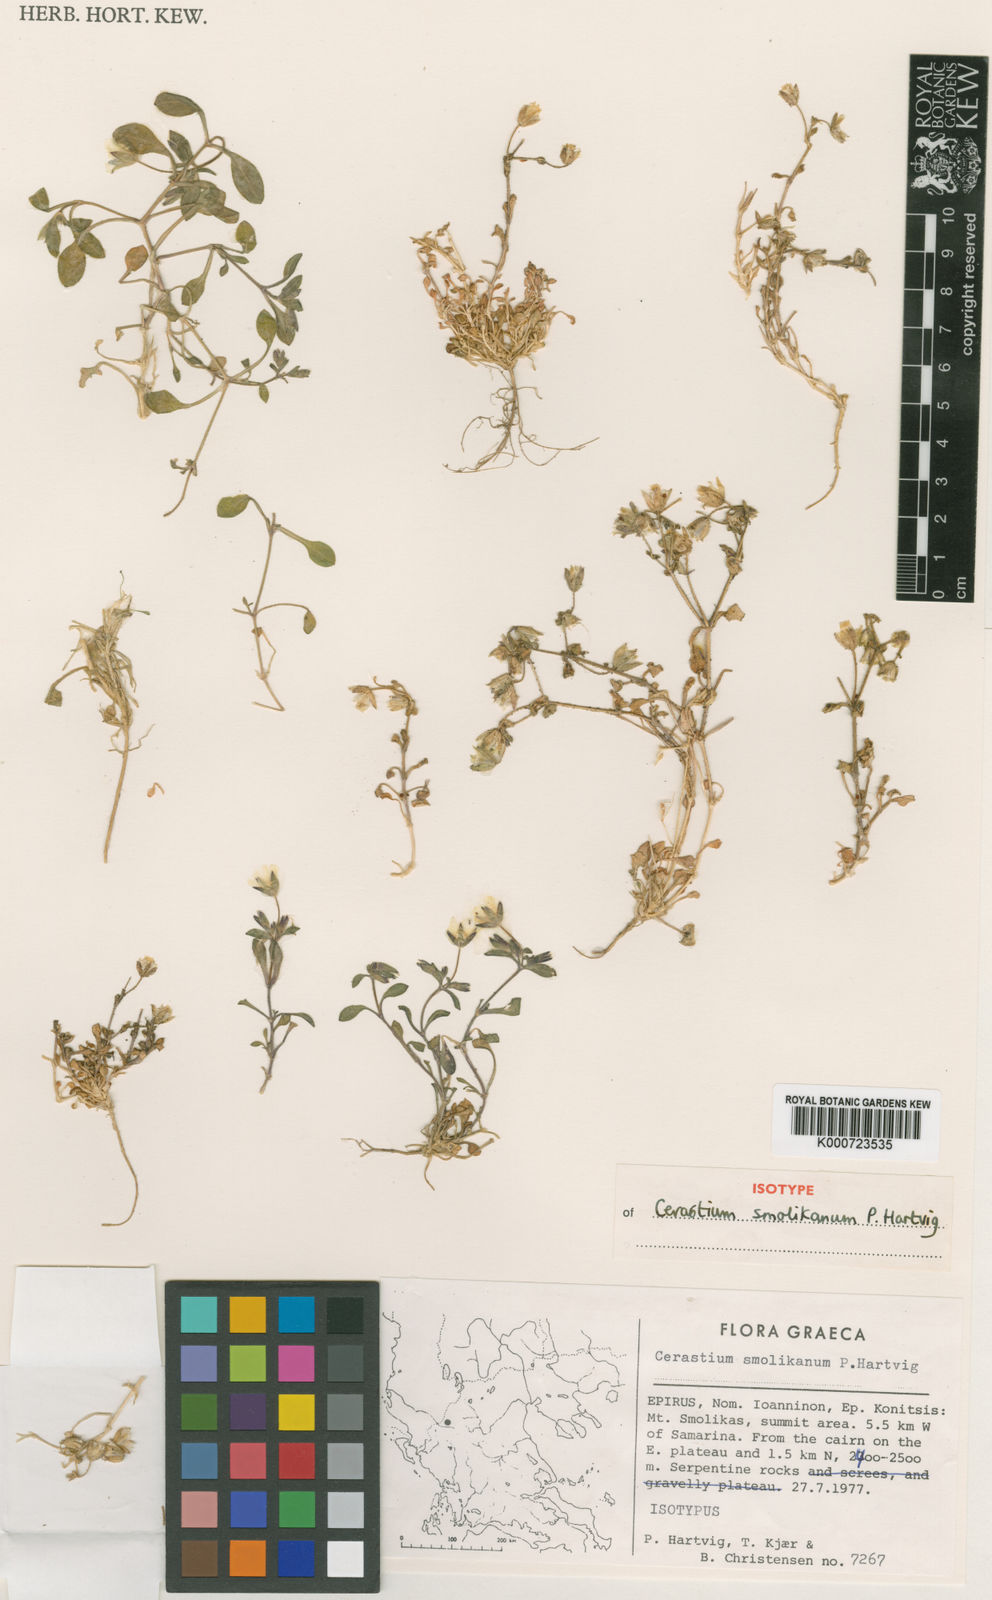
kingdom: Plantae
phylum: Tracheophyta
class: Magnoliopsida
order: Caryophyllales
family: Caryophyllaceae
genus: Cerastium
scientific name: Cerastium smolikanum
